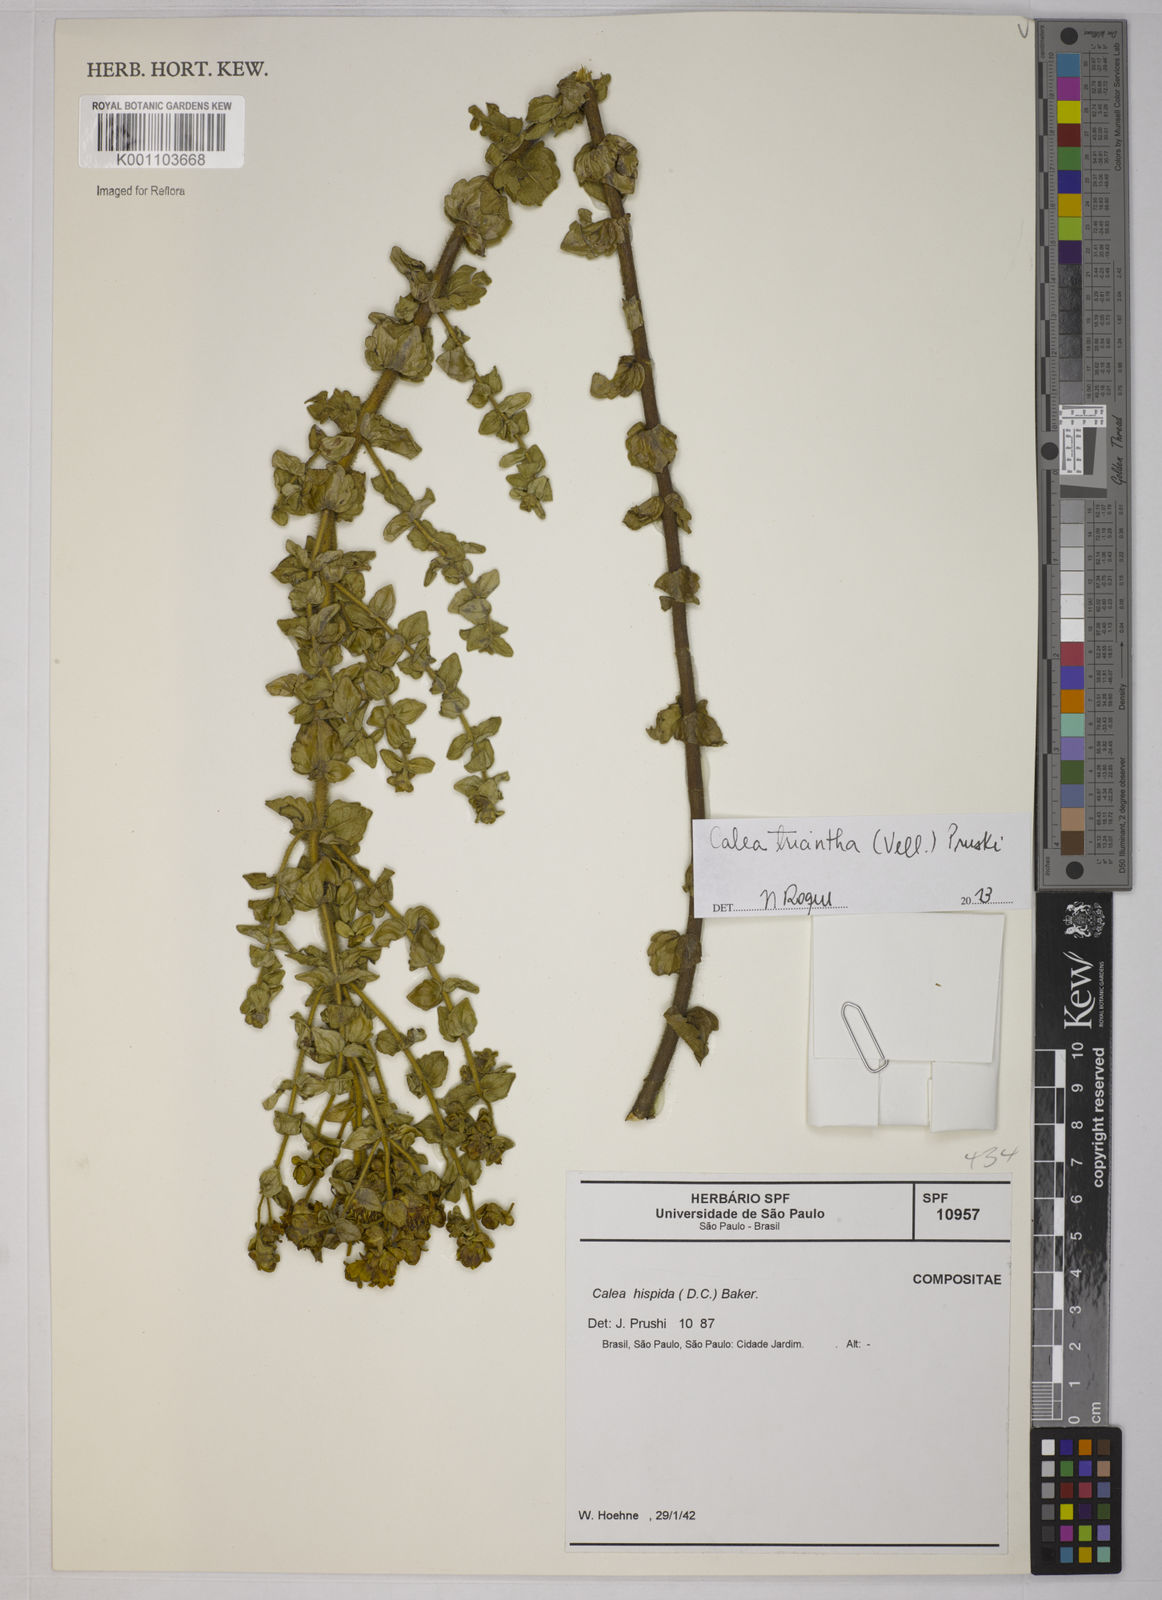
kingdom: Plantae
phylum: Tracheophyta
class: Magnoliopsida
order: Asterales
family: Asteraceae
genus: Calea
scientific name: Calea triantha
